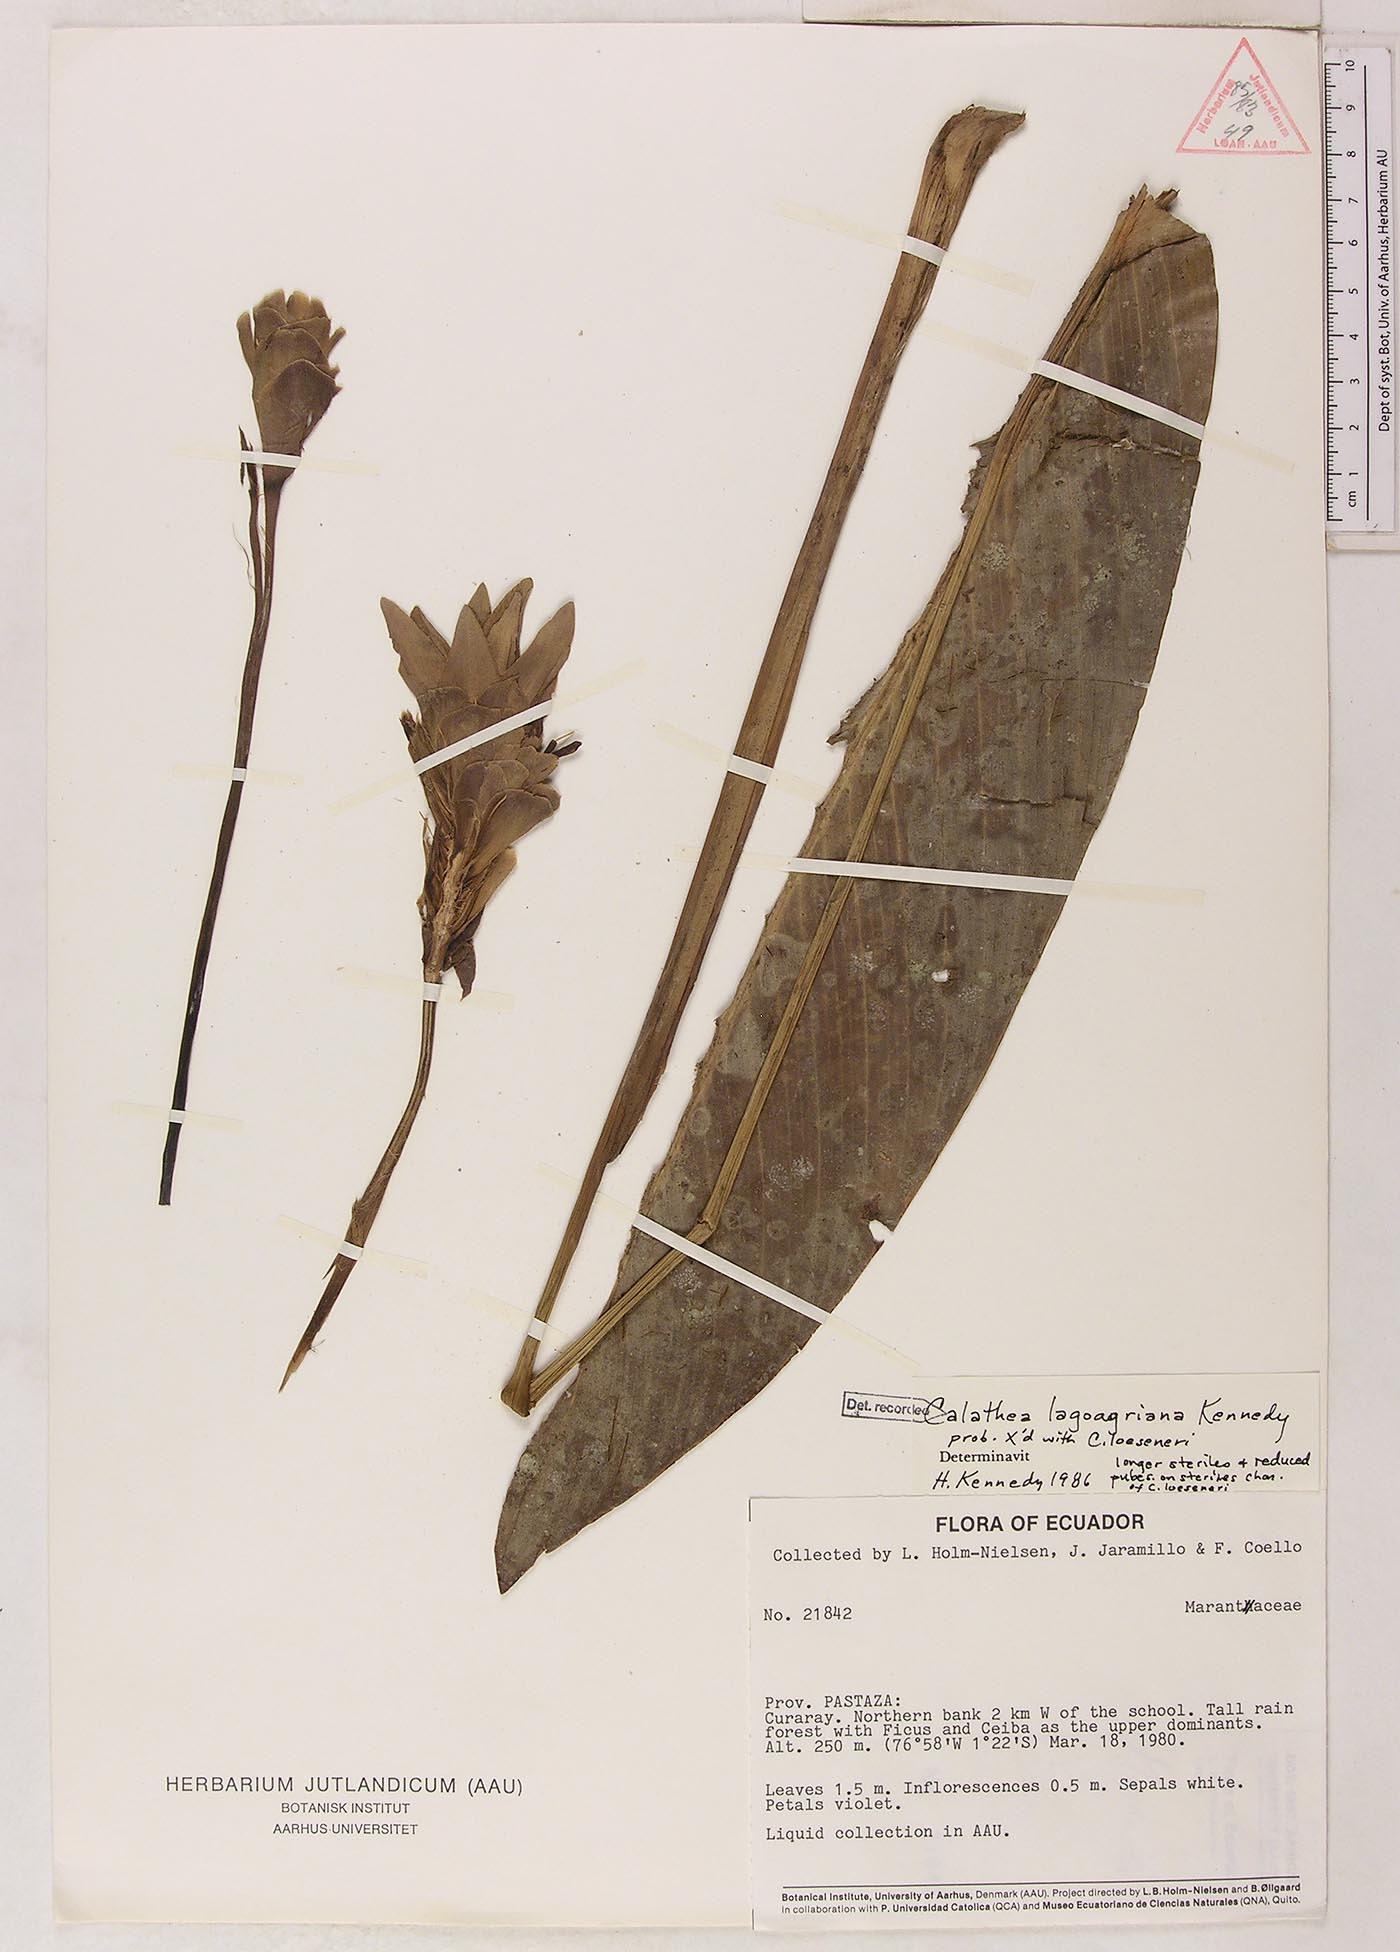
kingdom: Plantae
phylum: Tracheophyta
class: Liliopsida
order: Zingiberales
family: Marantaceae
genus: Goeppertia
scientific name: Goeppertia lagoagriana
